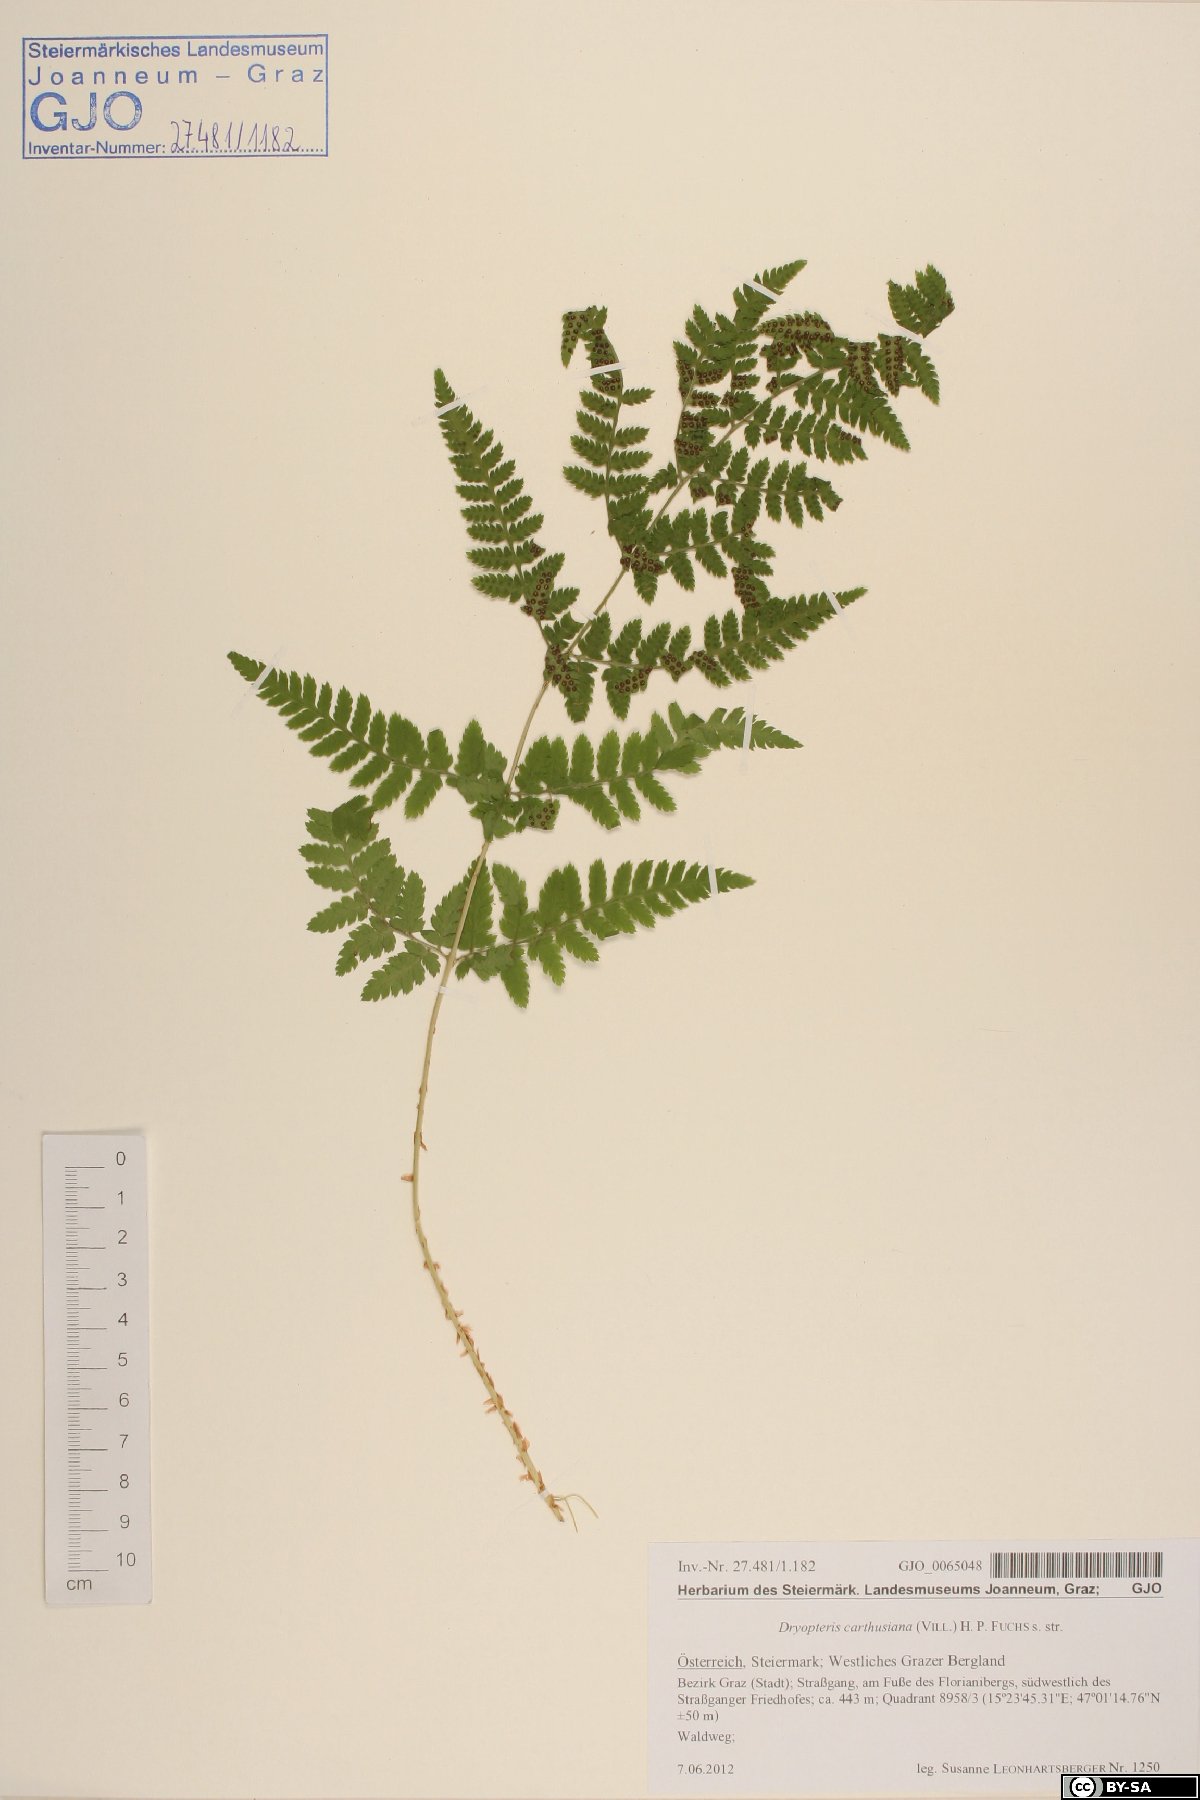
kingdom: Plantae
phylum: Tracheophyta
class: Polypodiopsida
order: Polypodiales
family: Dryopteridaceae
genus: Dryopteris
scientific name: Dryopteris carthusiana
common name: Narrow buckler-fern
